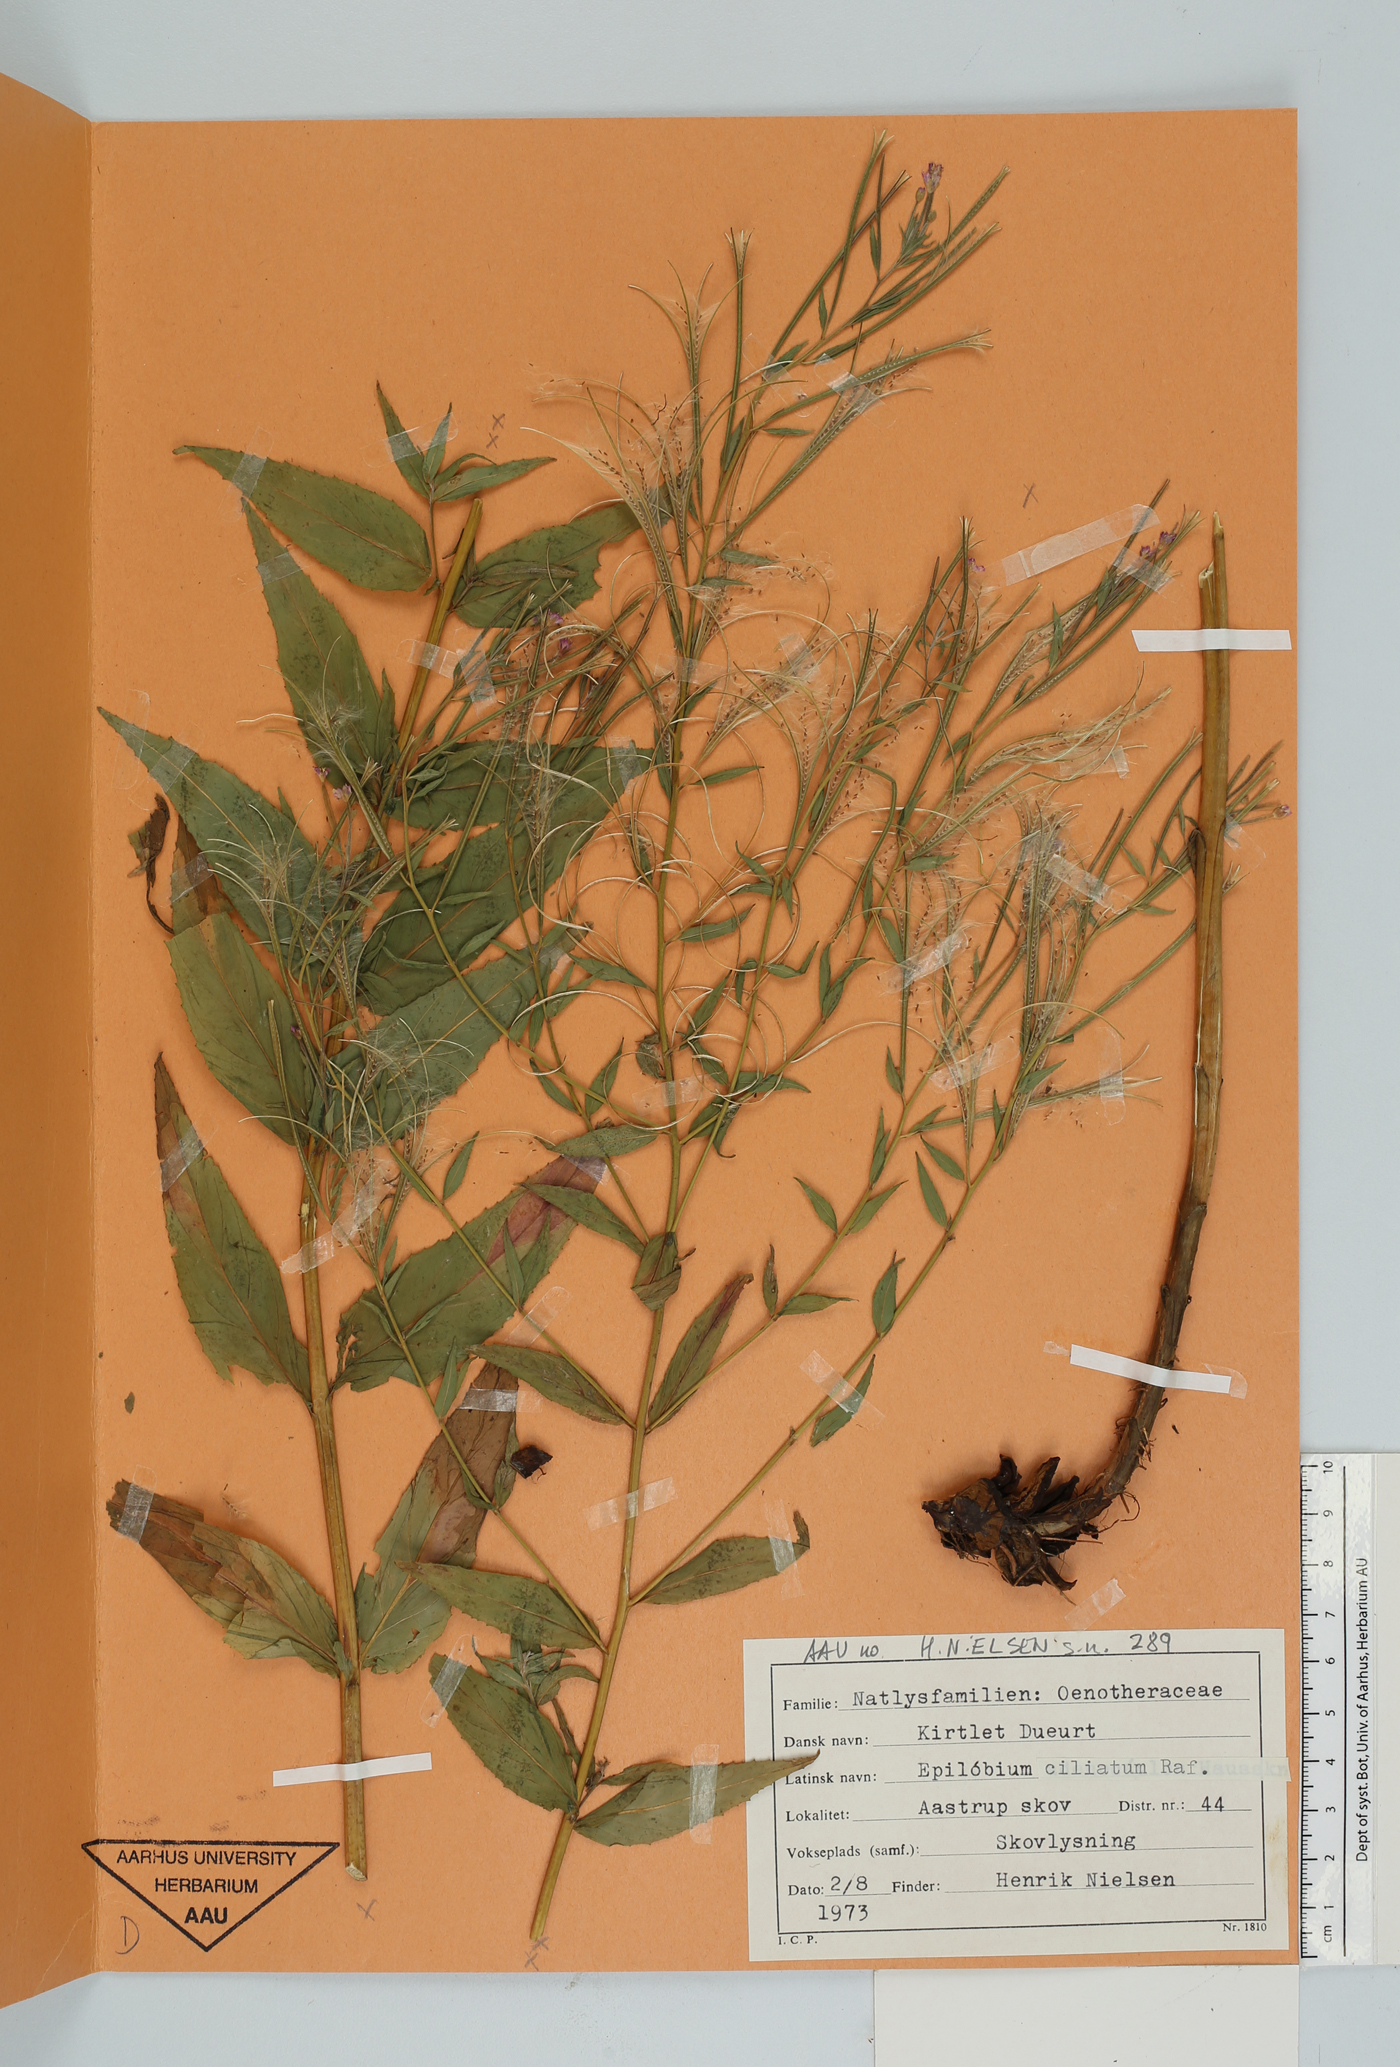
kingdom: Plantae
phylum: Tracheophyta
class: Magnoliopsida
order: Myrtales
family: Onagraceae
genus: Epilobium
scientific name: Epilobium ciliatum
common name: American willowherb
